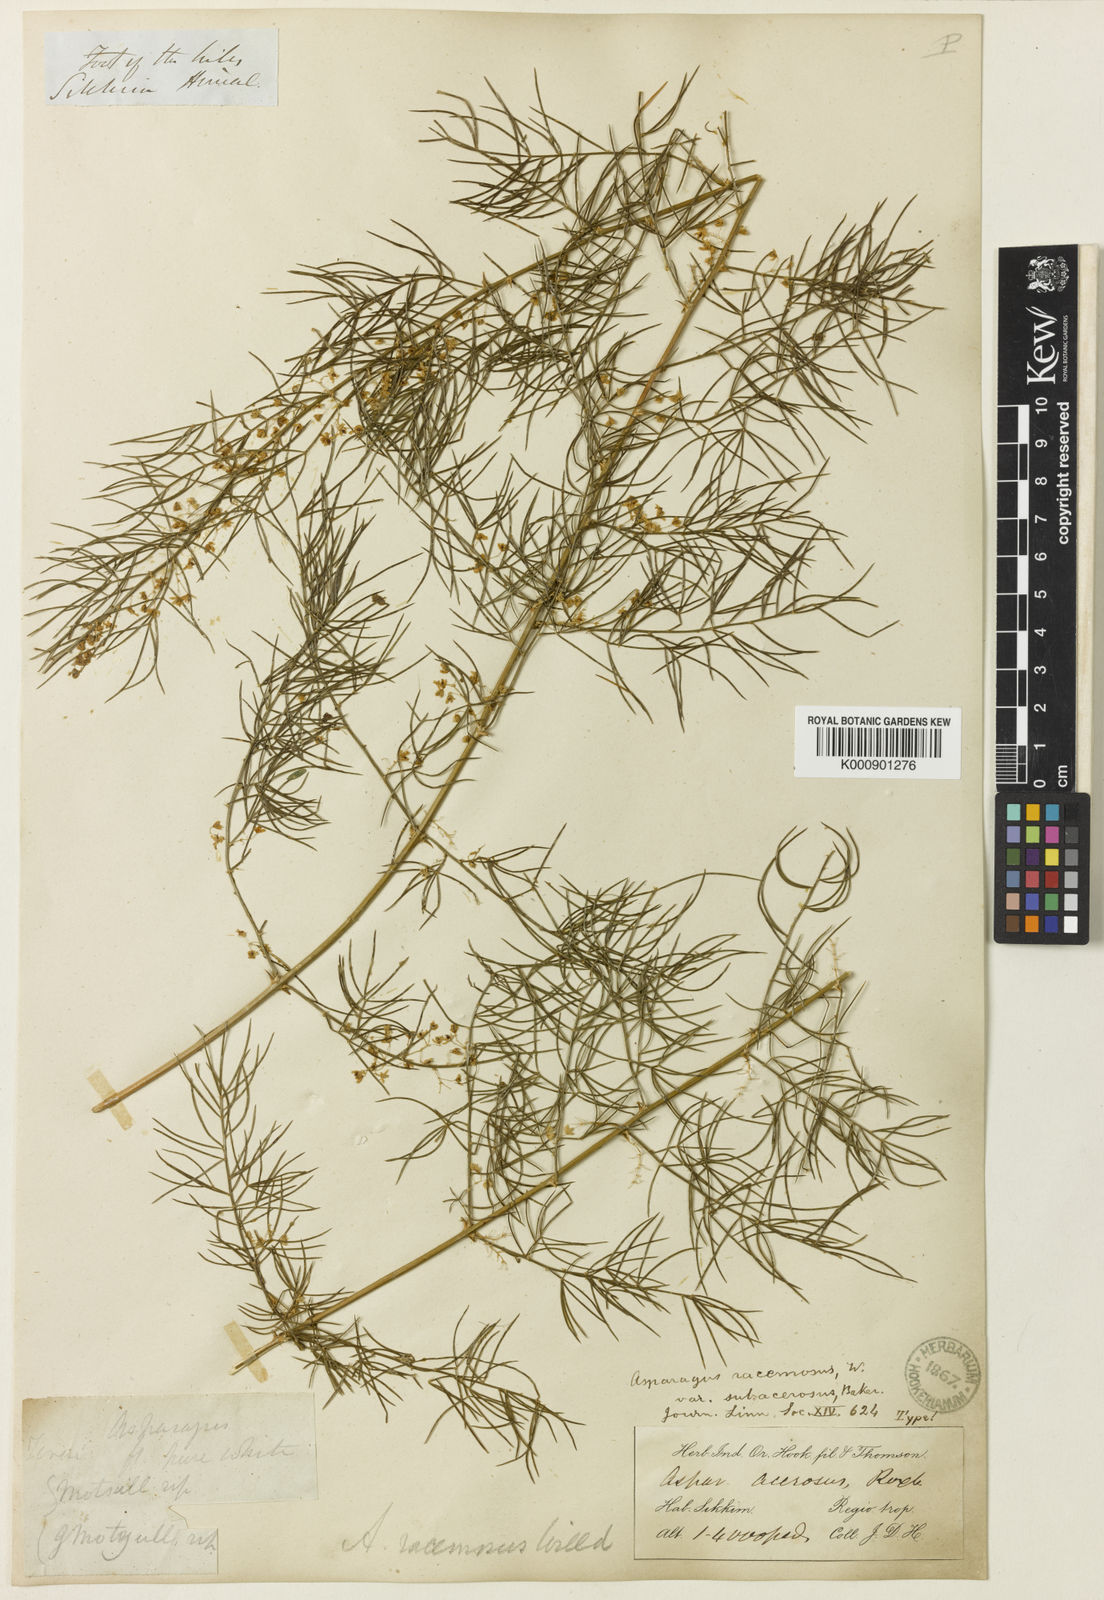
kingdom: Plantae
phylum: Tracheophyta
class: Liliopsida
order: Asparagales
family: Asparagaceae
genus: Asparagus
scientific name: Asparagus racemosus
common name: Asparagus-fern
